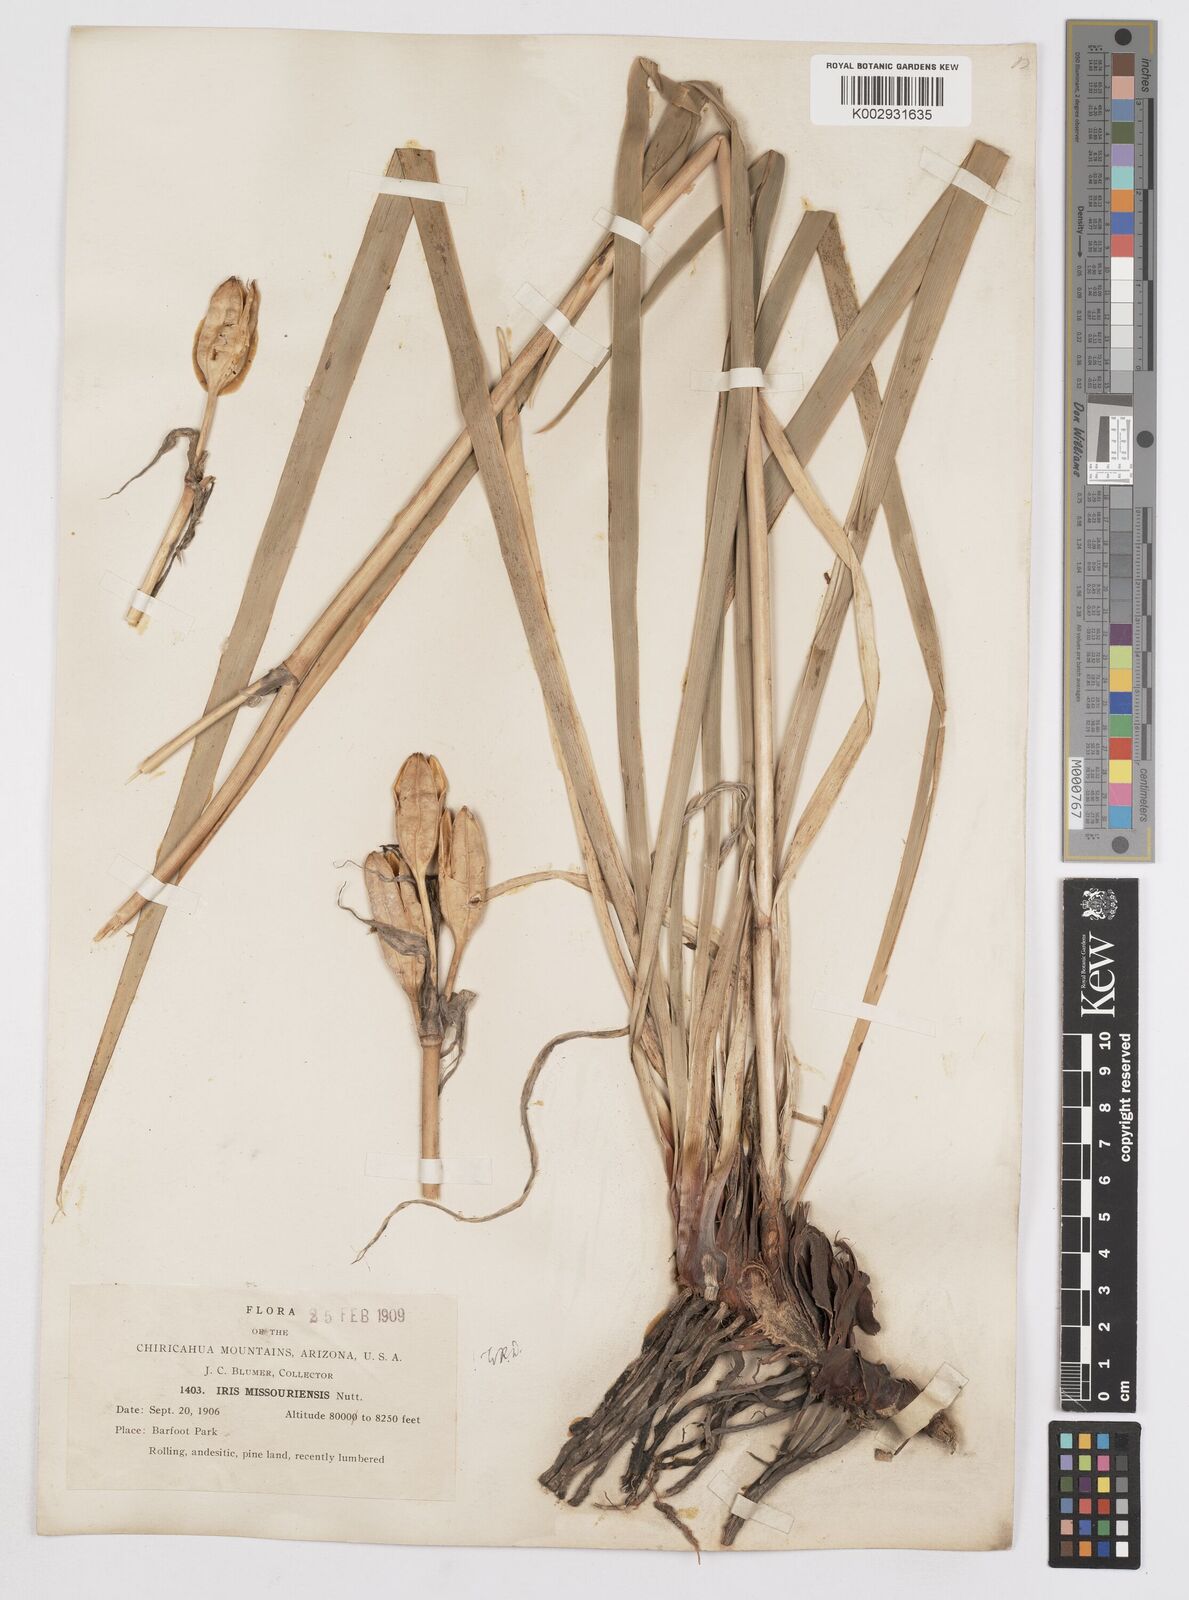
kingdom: Plantae
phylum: Tracheophyta
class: Liliopsida
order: Asparagales
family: Iridaceae
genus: Iris
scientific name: Iris missouriensis
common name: Rocky mountain iris
